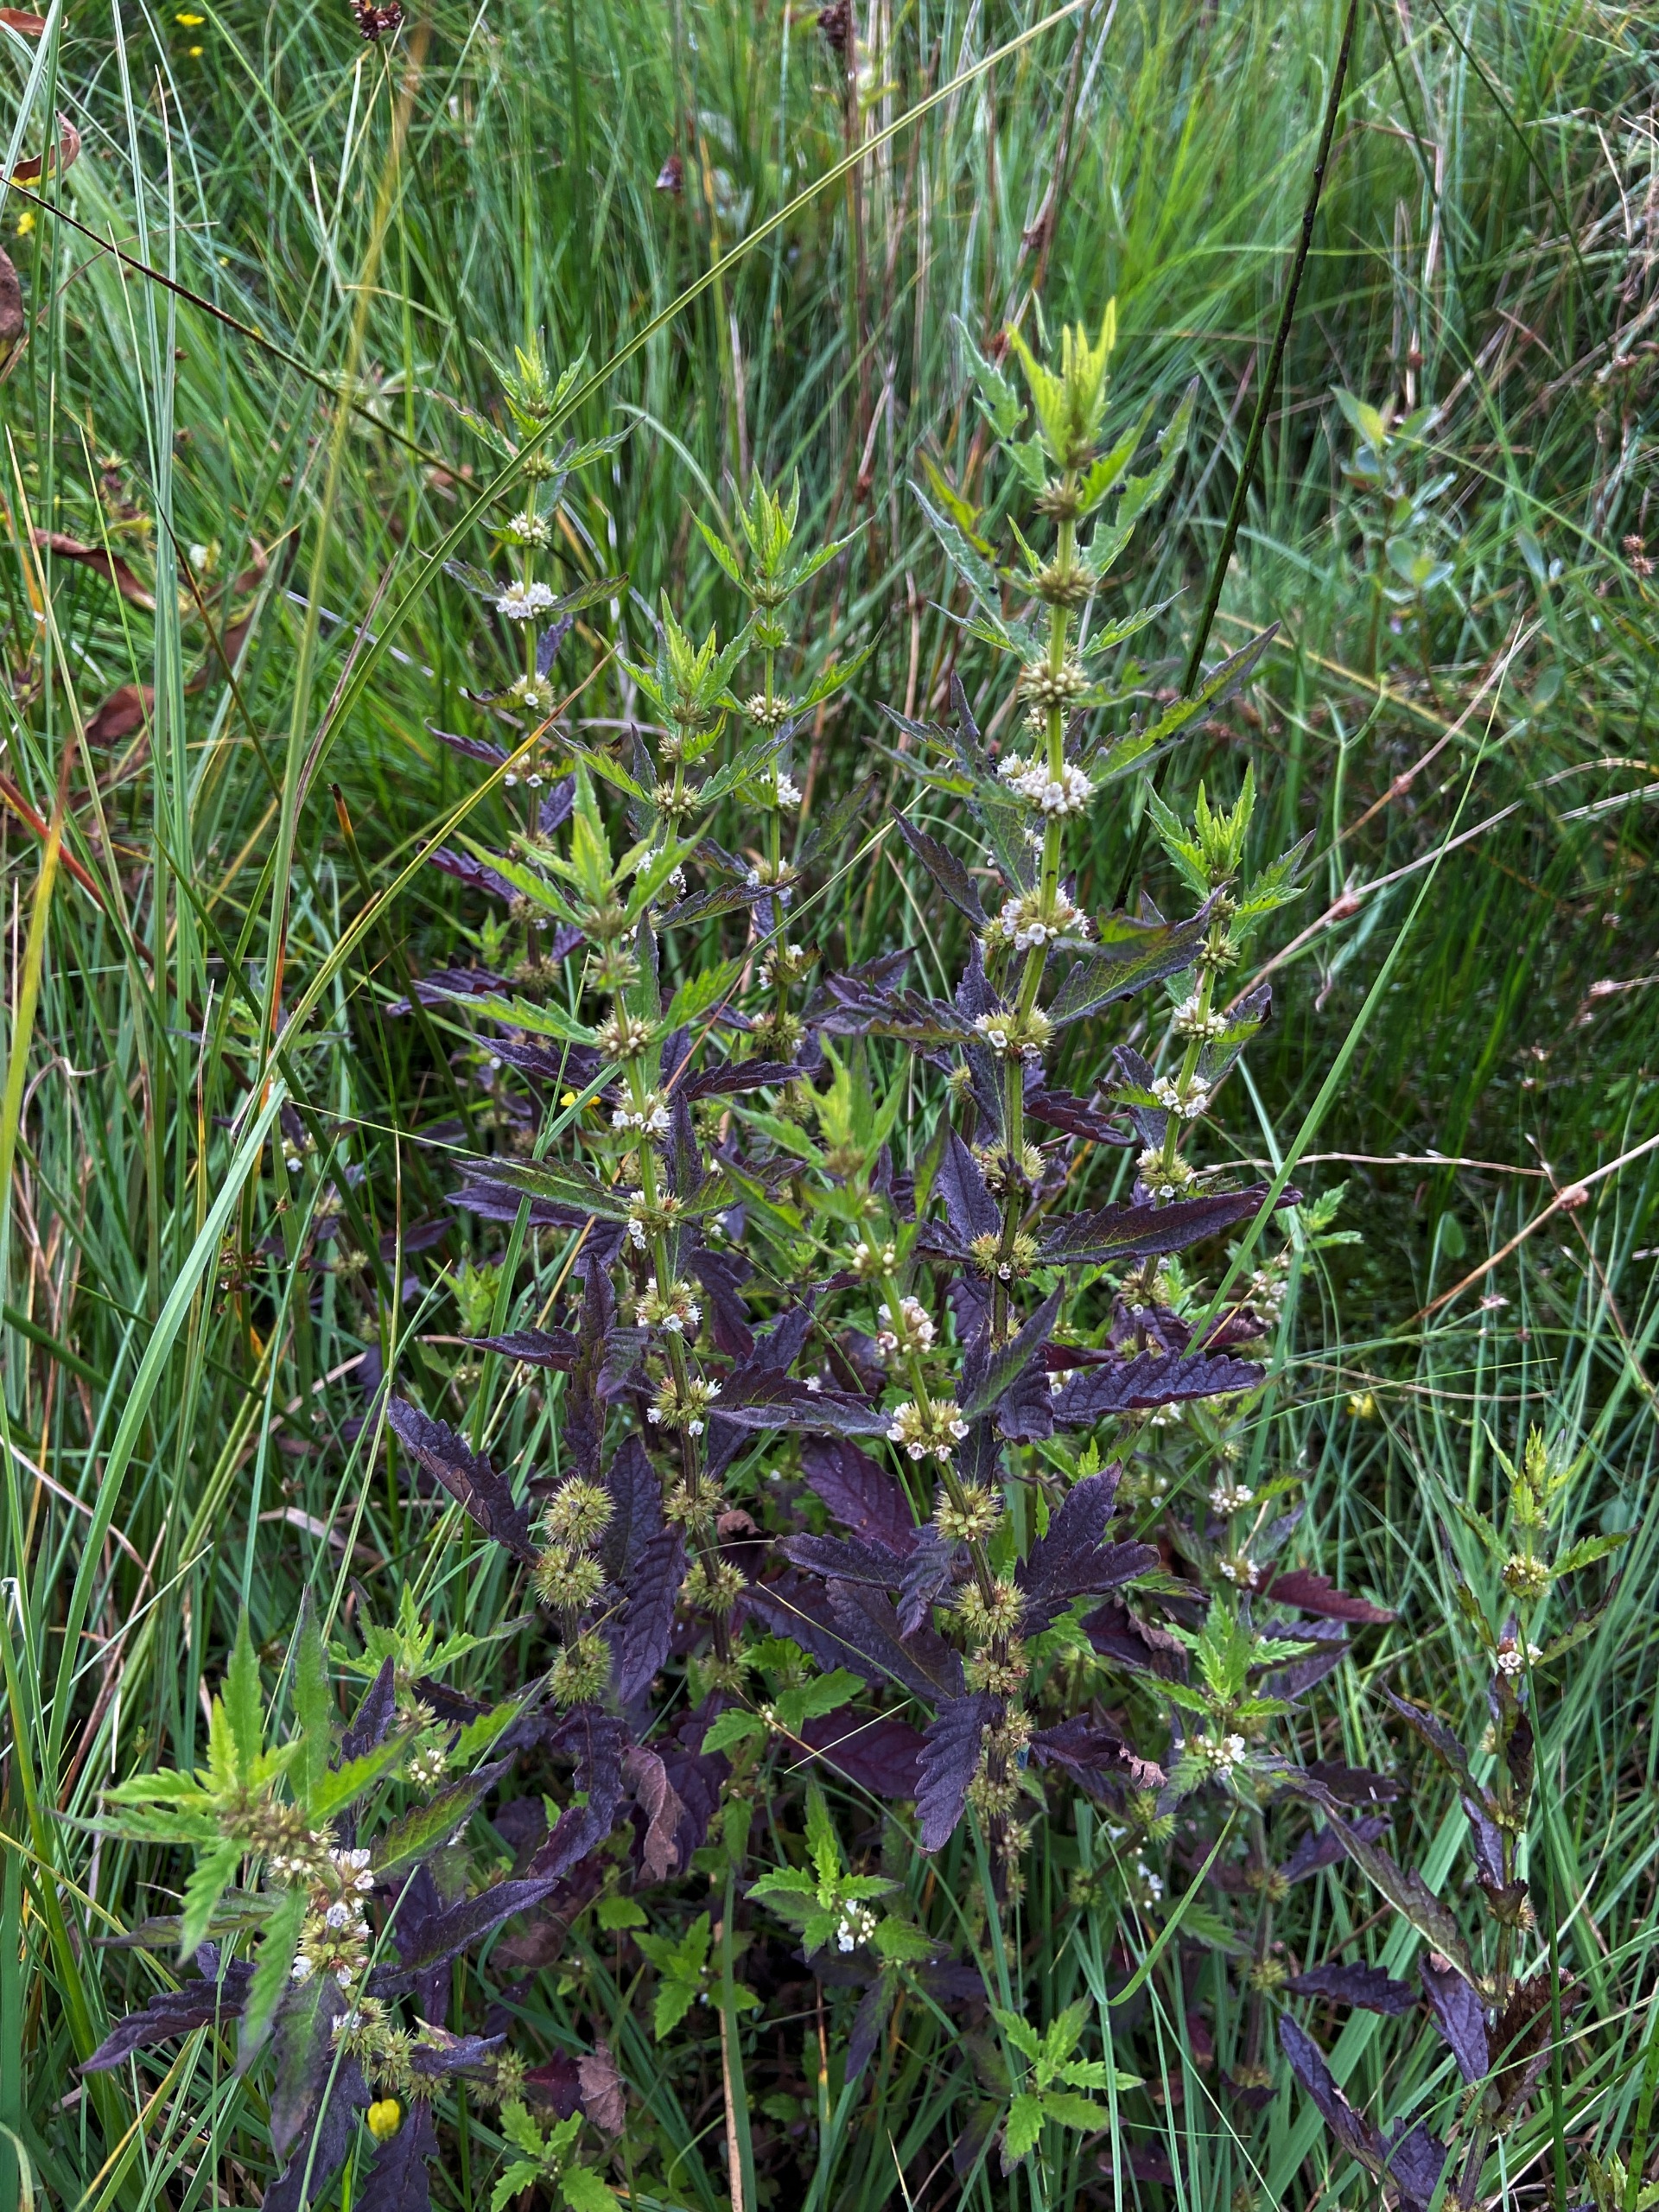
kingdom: Plantae
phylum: Tracheophyta
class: Magnoliopsida
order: Lamiales
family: Lamiaceae
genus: Lycopus
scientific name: Lycopus europaeus
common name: Sværtevæld
